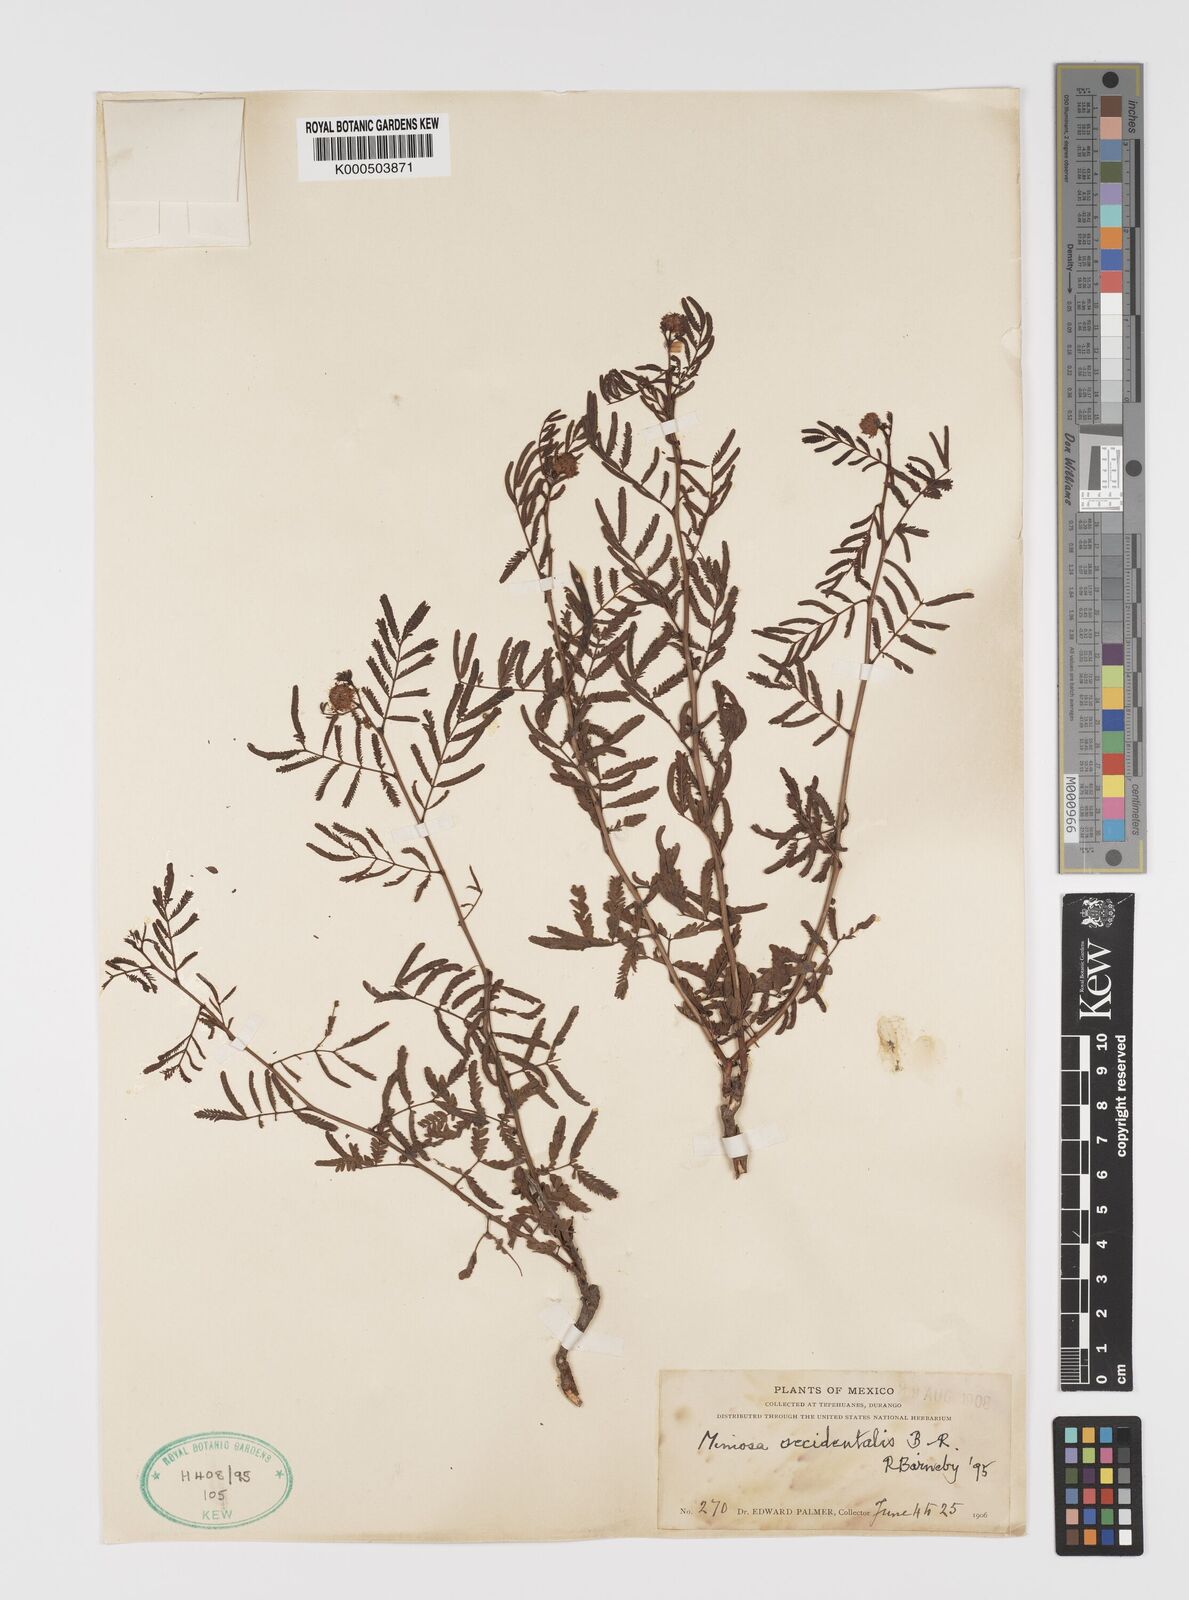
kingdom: Plantae
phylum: Tracheophyta
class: Magnoliopsida
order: Fabales
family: Fabaceae
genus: Mimosa
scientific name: Mimosa occidentalis
